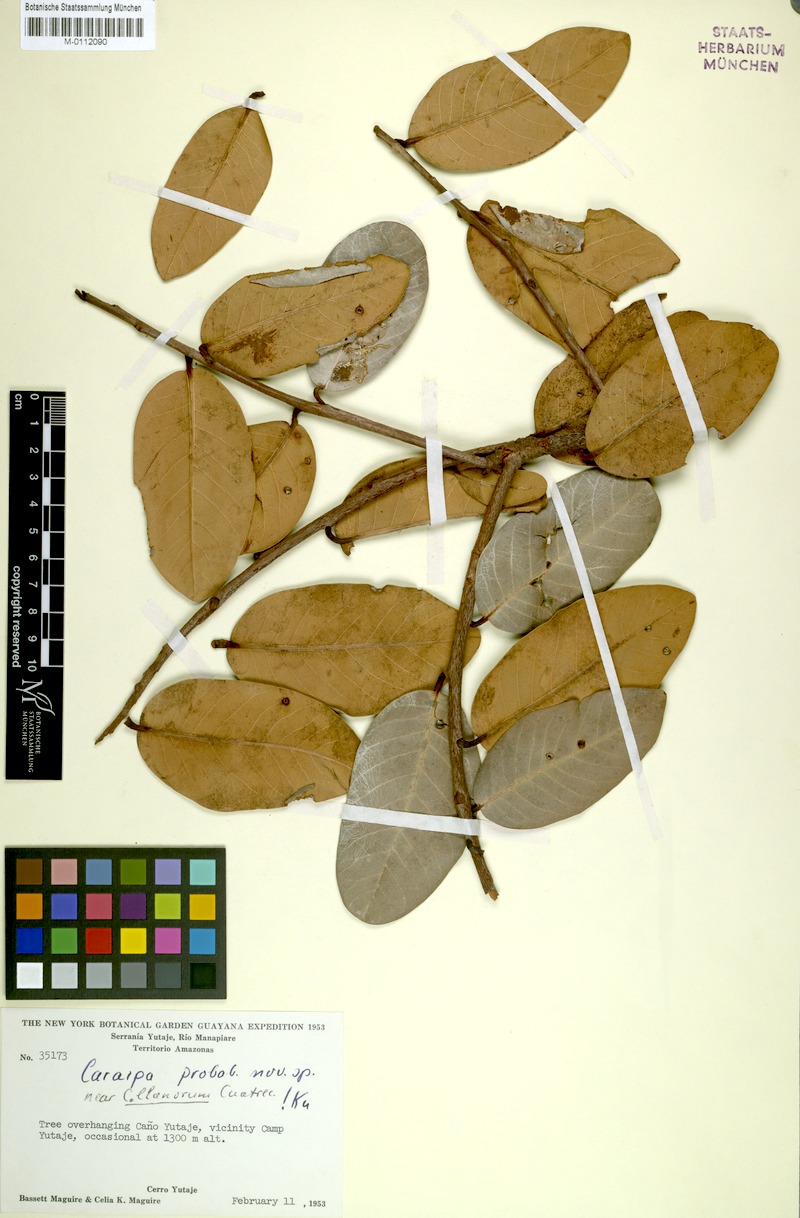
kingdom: Plantae
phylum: Tracheophyta
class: Magnoliopsida
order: Malpighiales
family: Calophyllaceae
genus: Caraipa
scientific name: Caraipa
